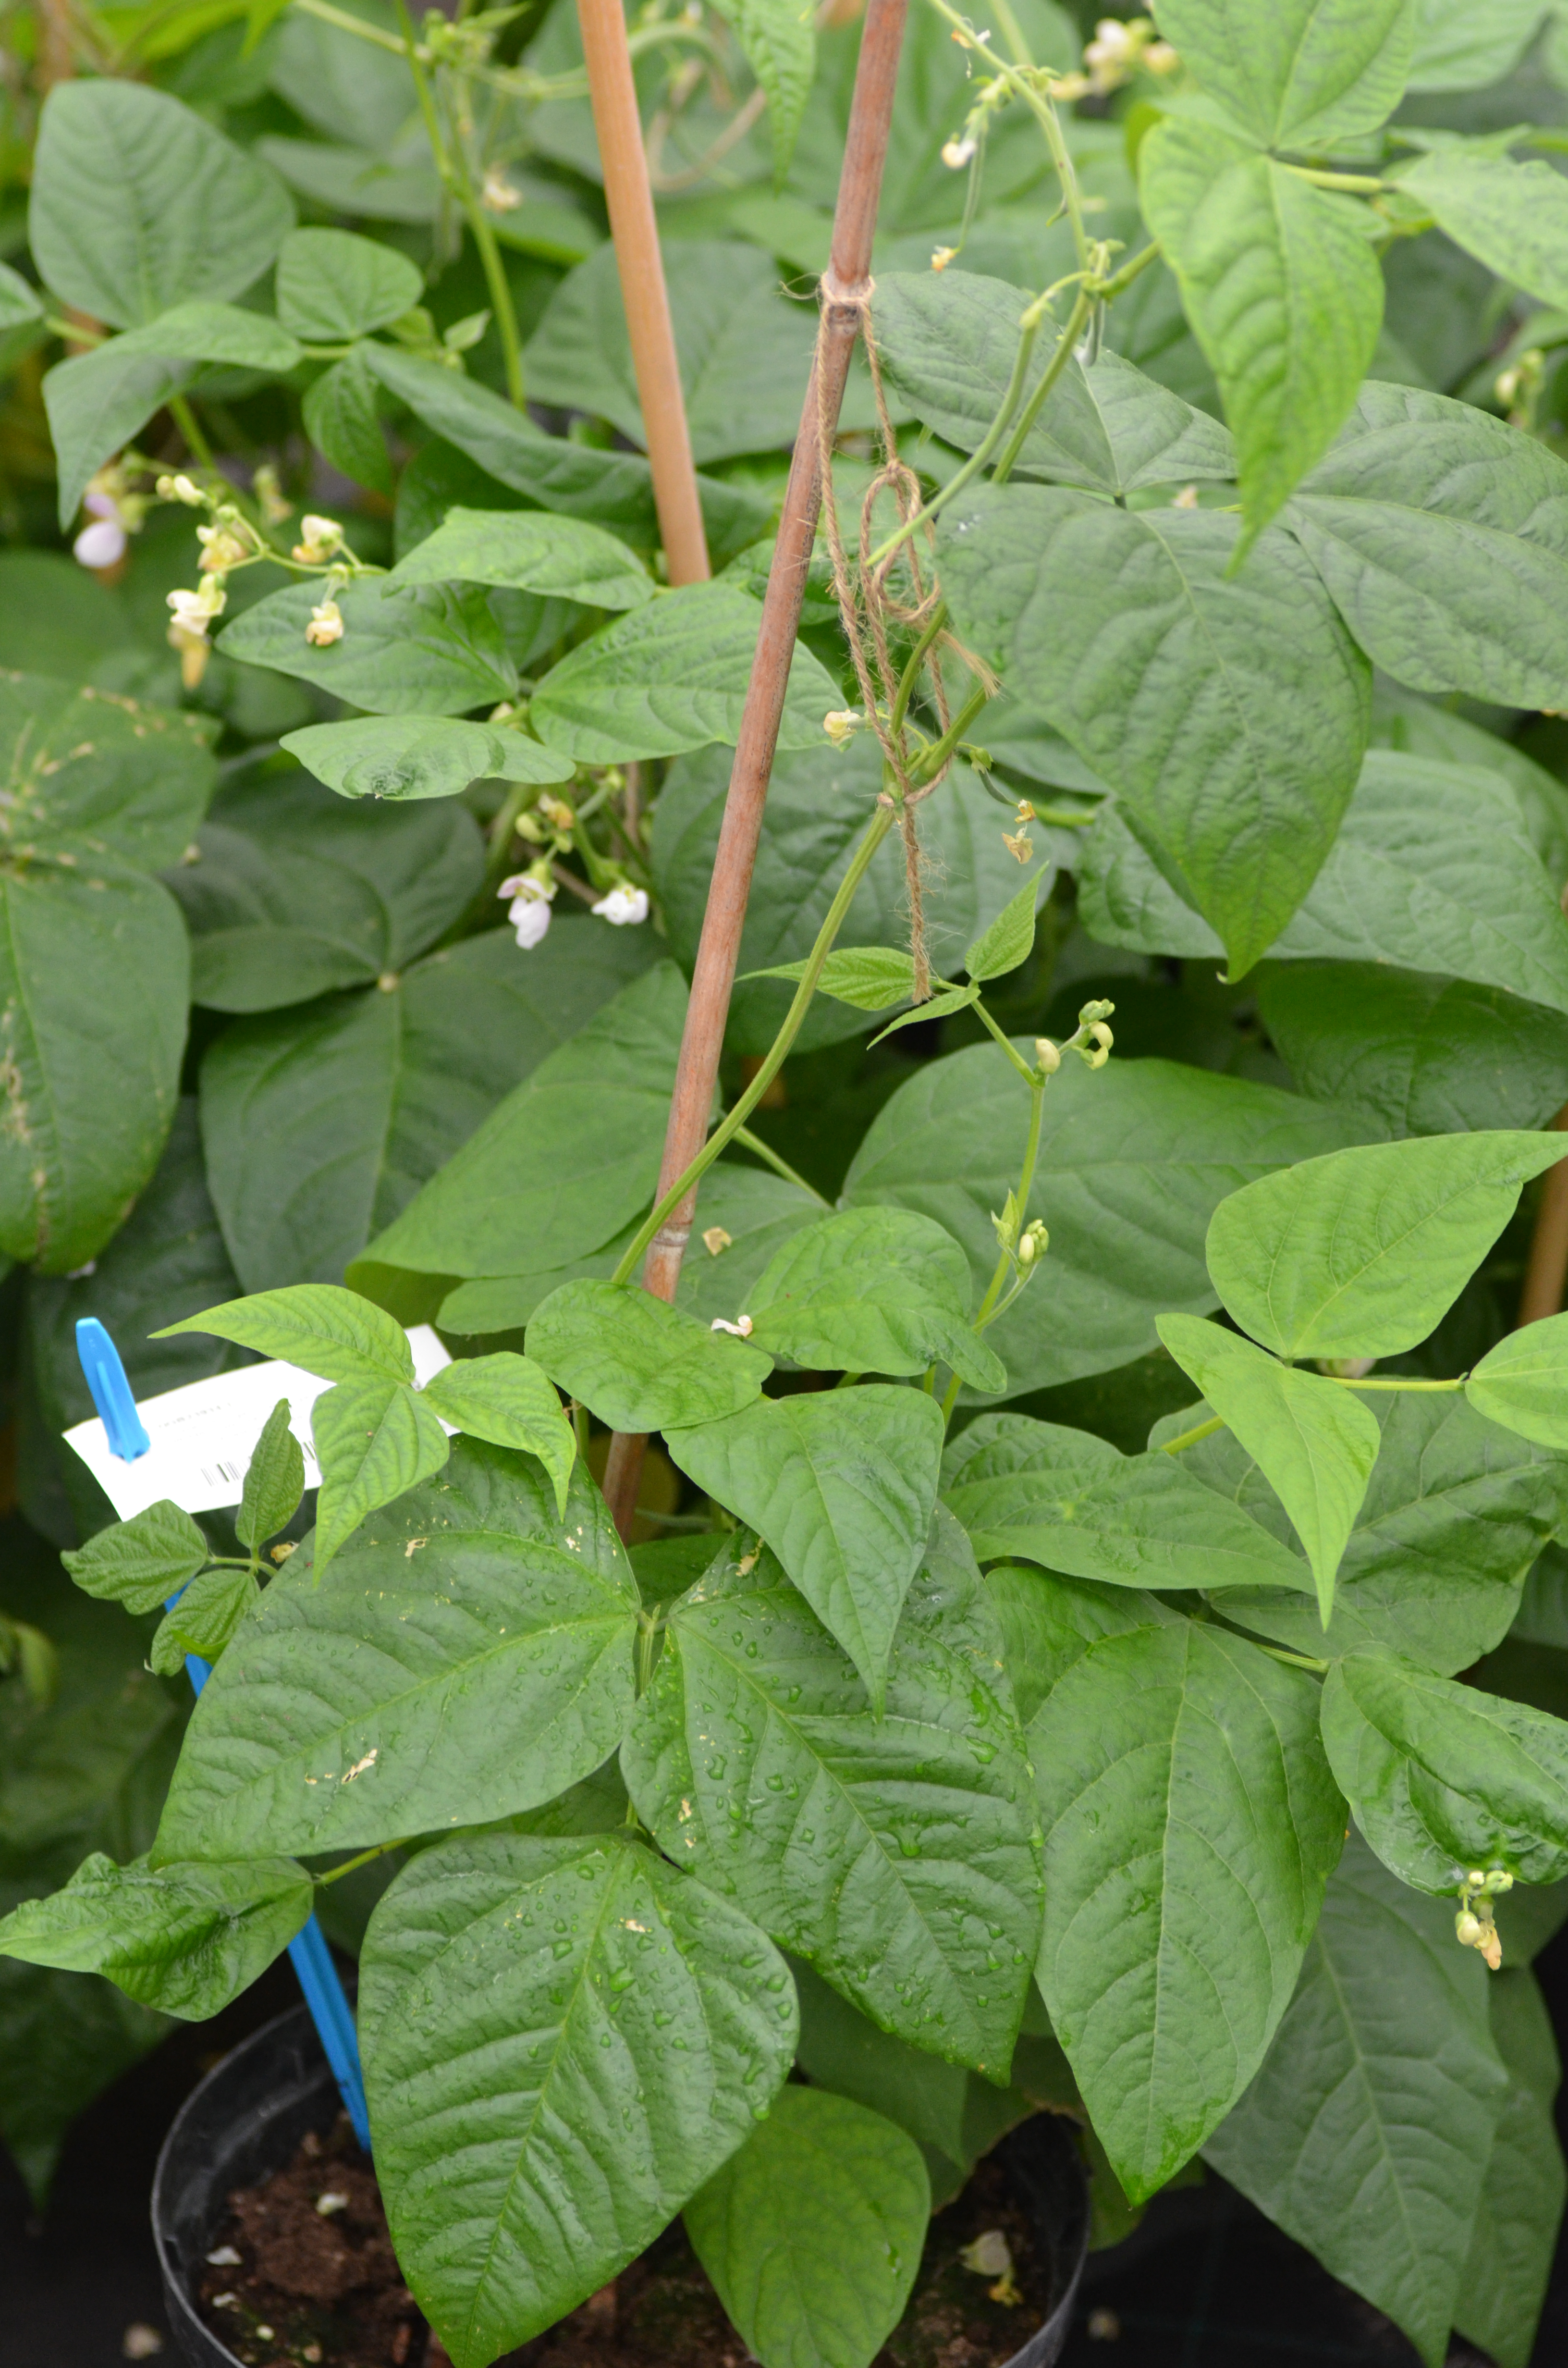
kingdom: Plantae
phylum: Tracheophyta
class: Magnoliopsida
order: Fabales
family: Fabaceae
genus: Phaseolus
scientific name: Phaseolus vulgaris
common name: Bean
